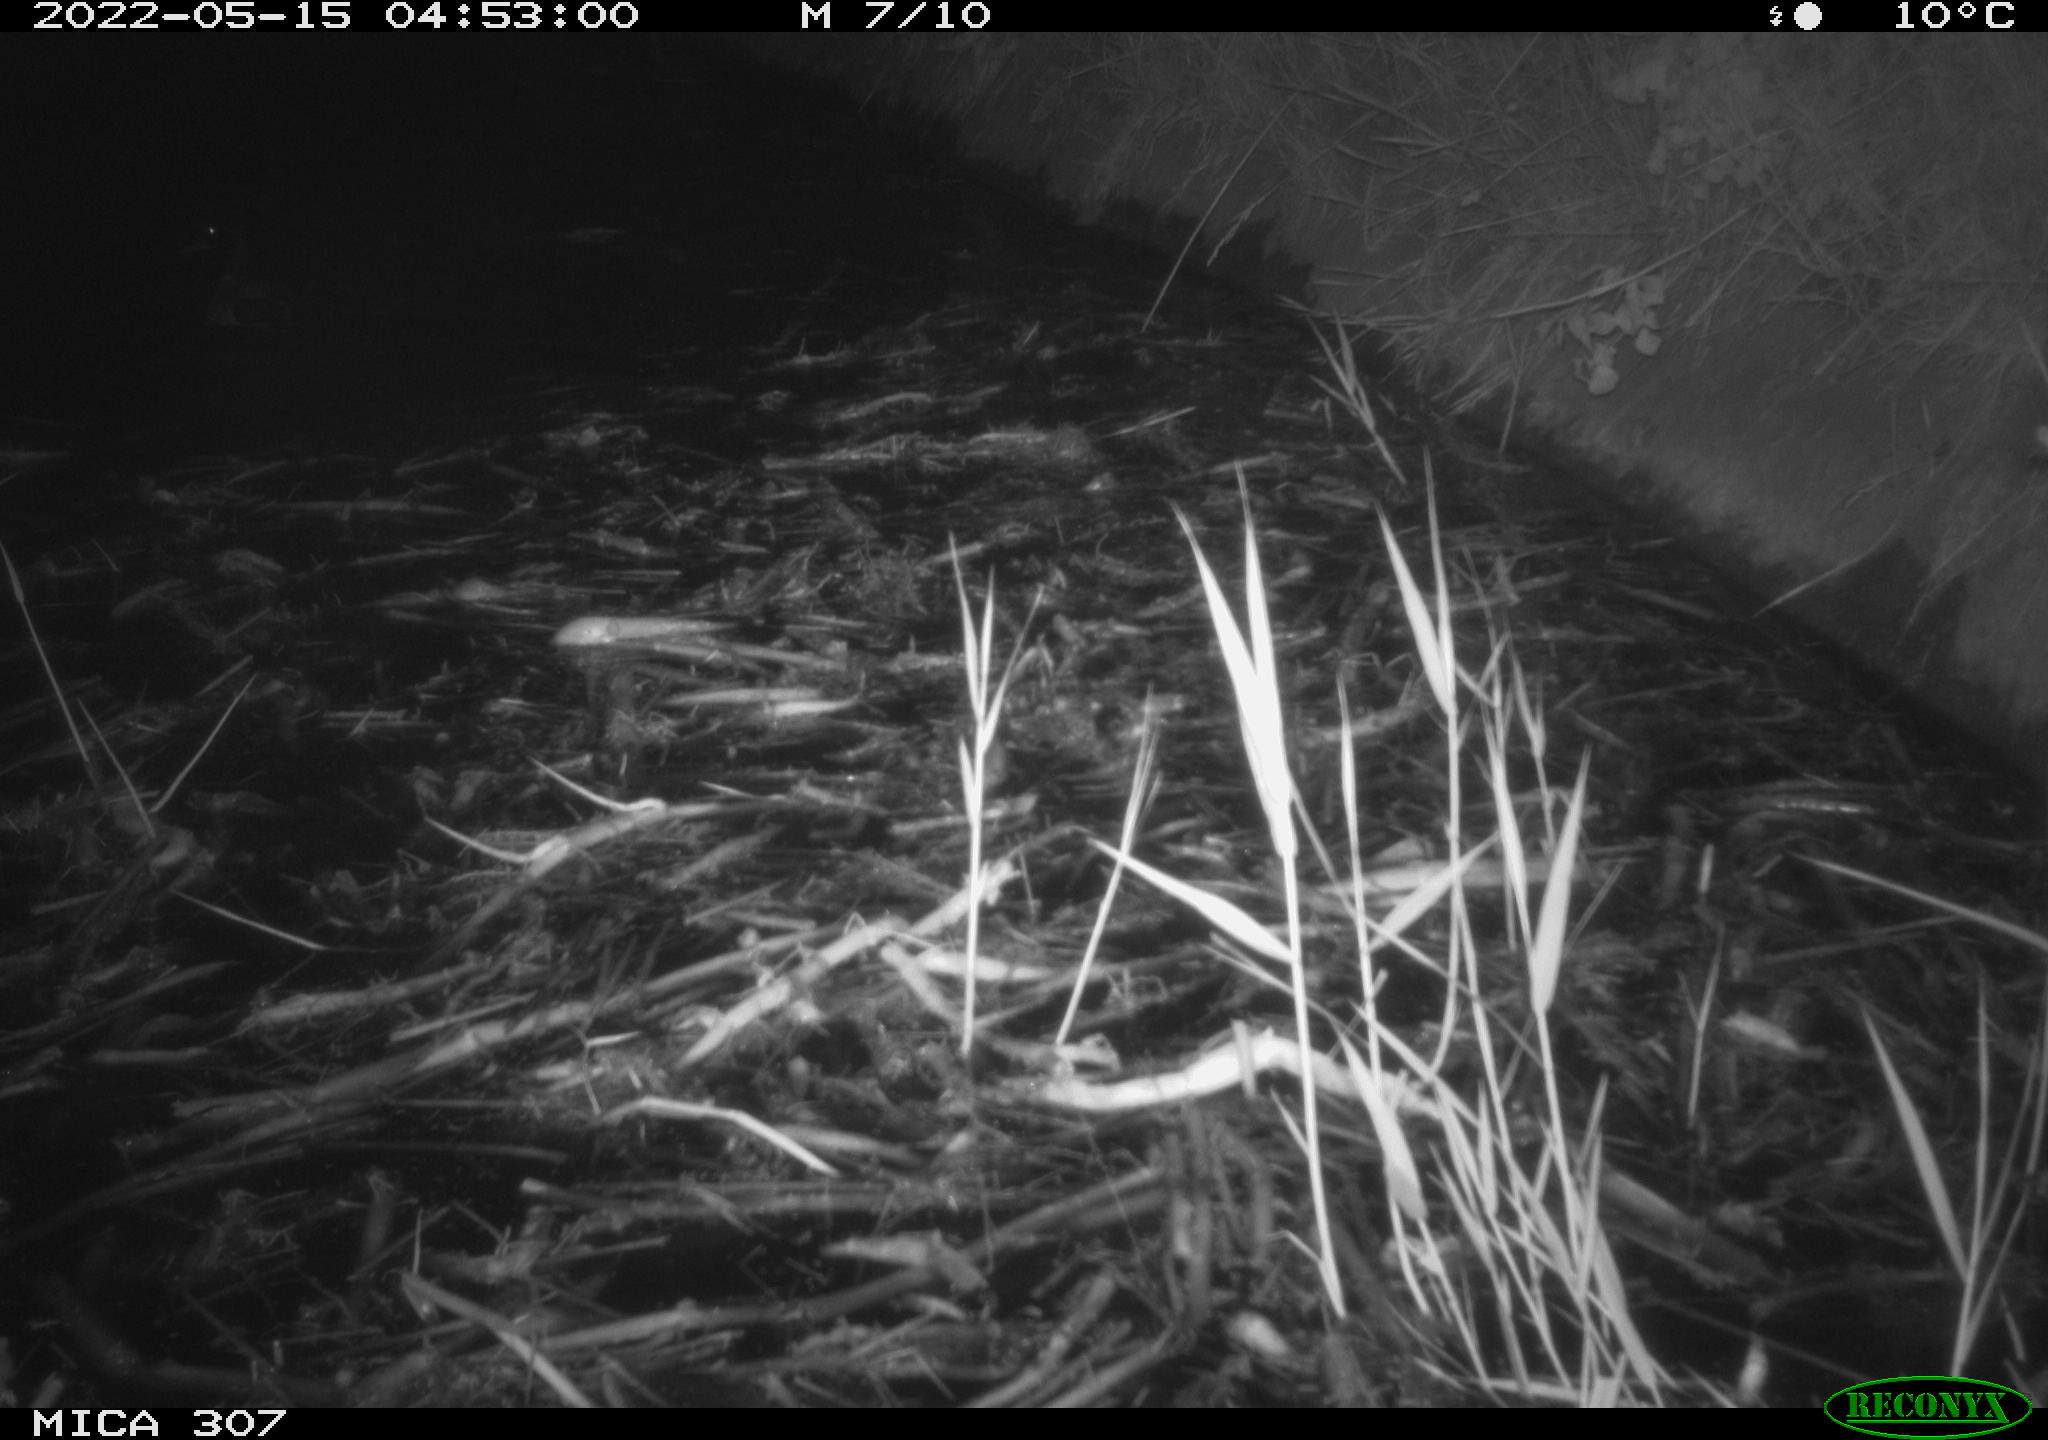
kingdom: Animalia
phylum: Chordata
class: Aves
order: Anseriformes
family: Anatidae
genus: Anas
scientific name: Anas platyrhynchos
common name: Mallard
